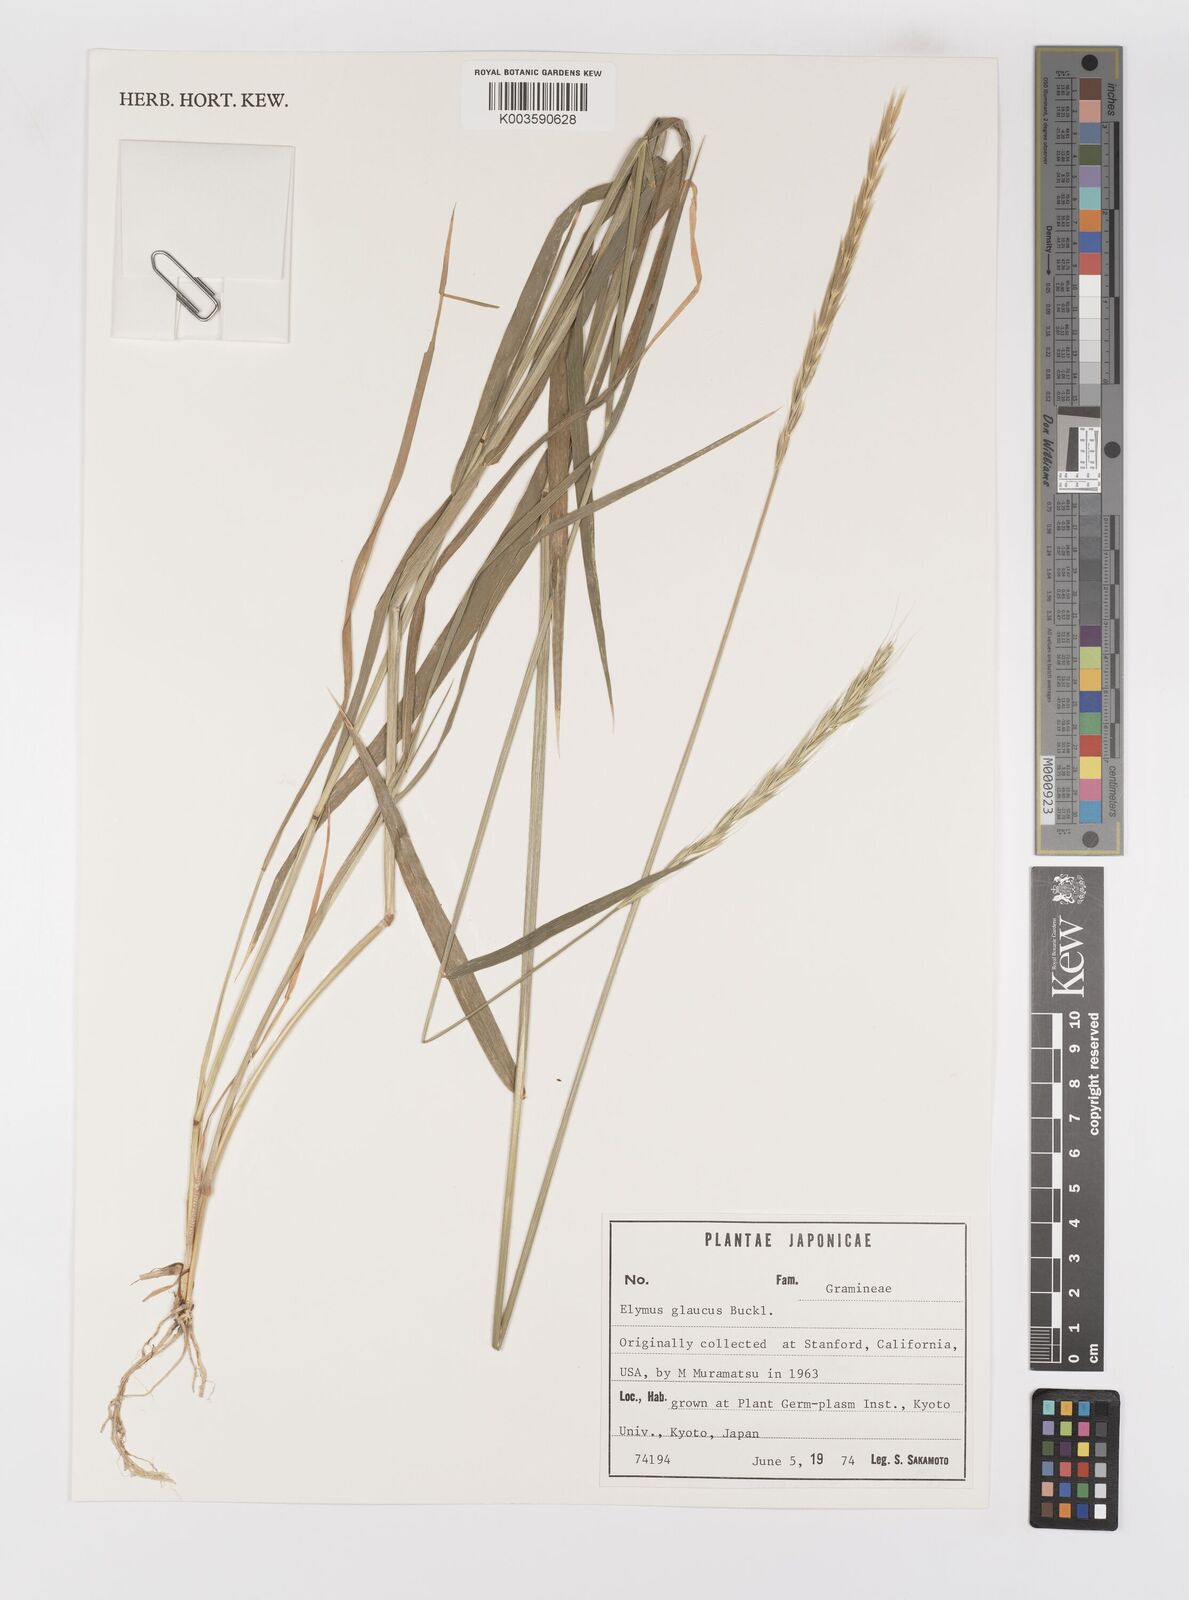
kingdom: Plantae
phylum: Tracheophyta
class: Liliopsida
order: Poales
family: Poaceae
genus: Elymus
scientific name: Elymus glaucus
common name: Blue wild rye
